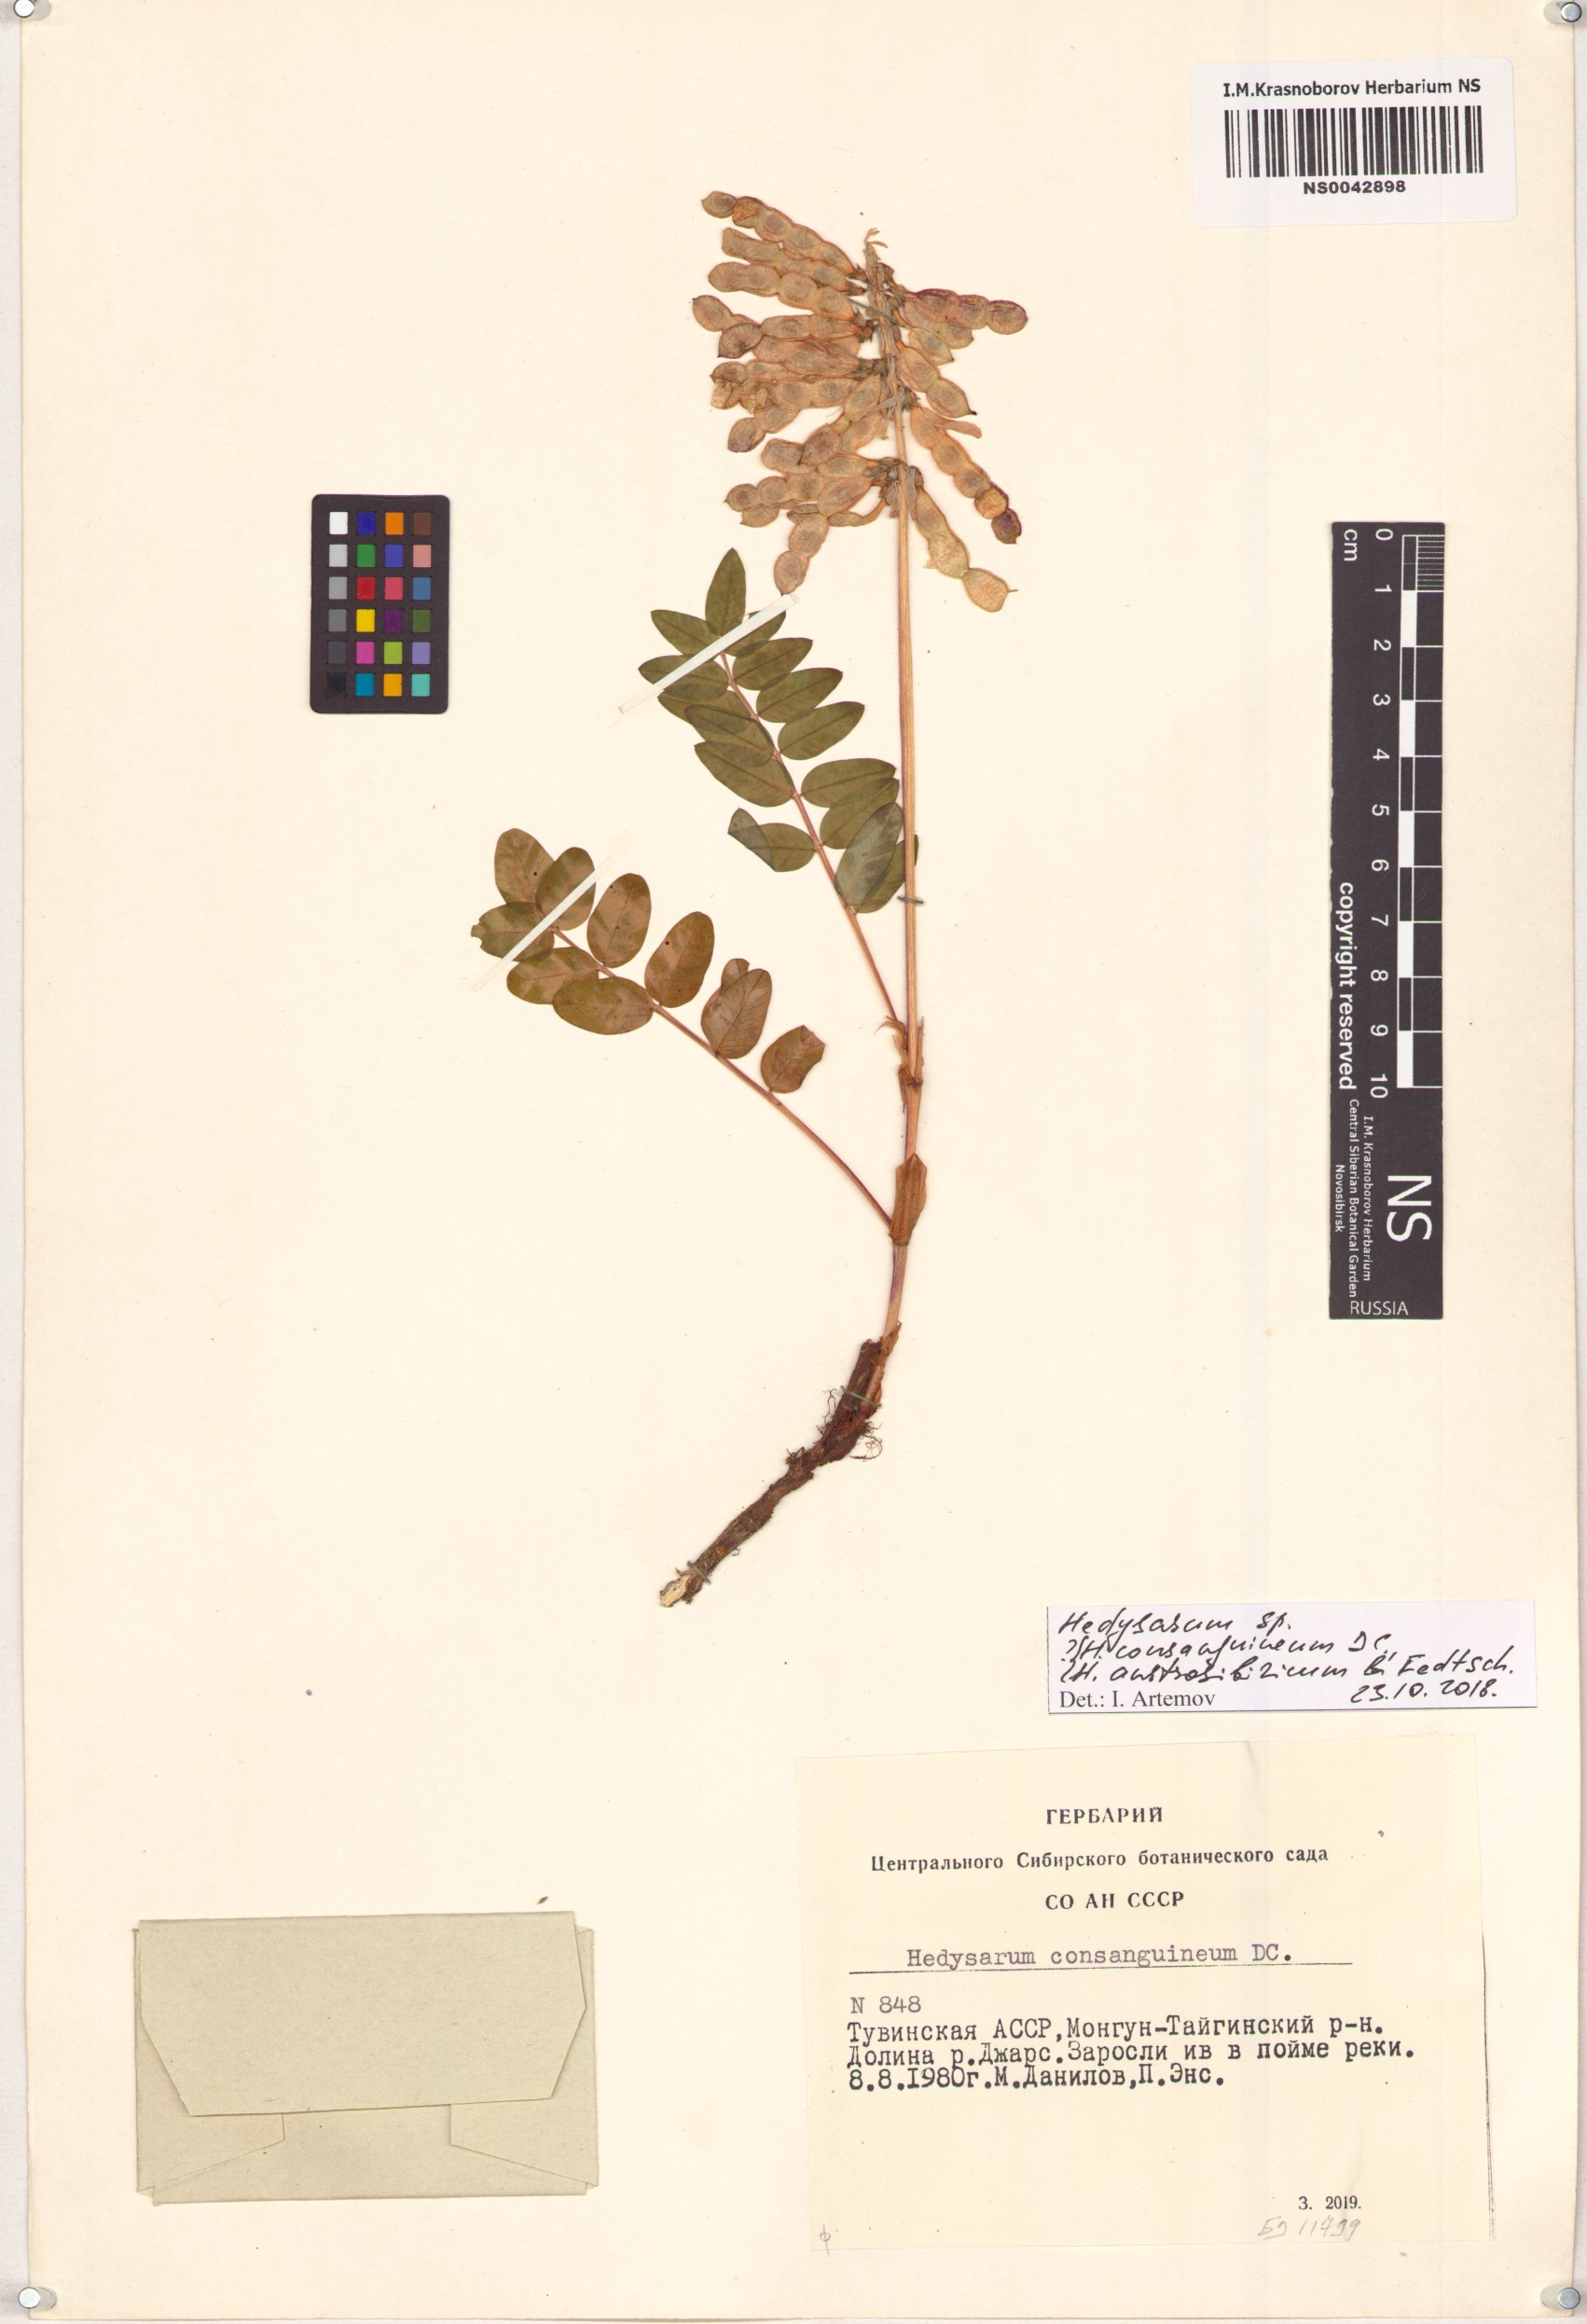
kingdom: Plantae
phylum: Tracheophyta
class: Magnoliopsida
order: Fabales
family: Fabaceae
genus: Hedysarum
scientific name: Hedysarum consanguineum
